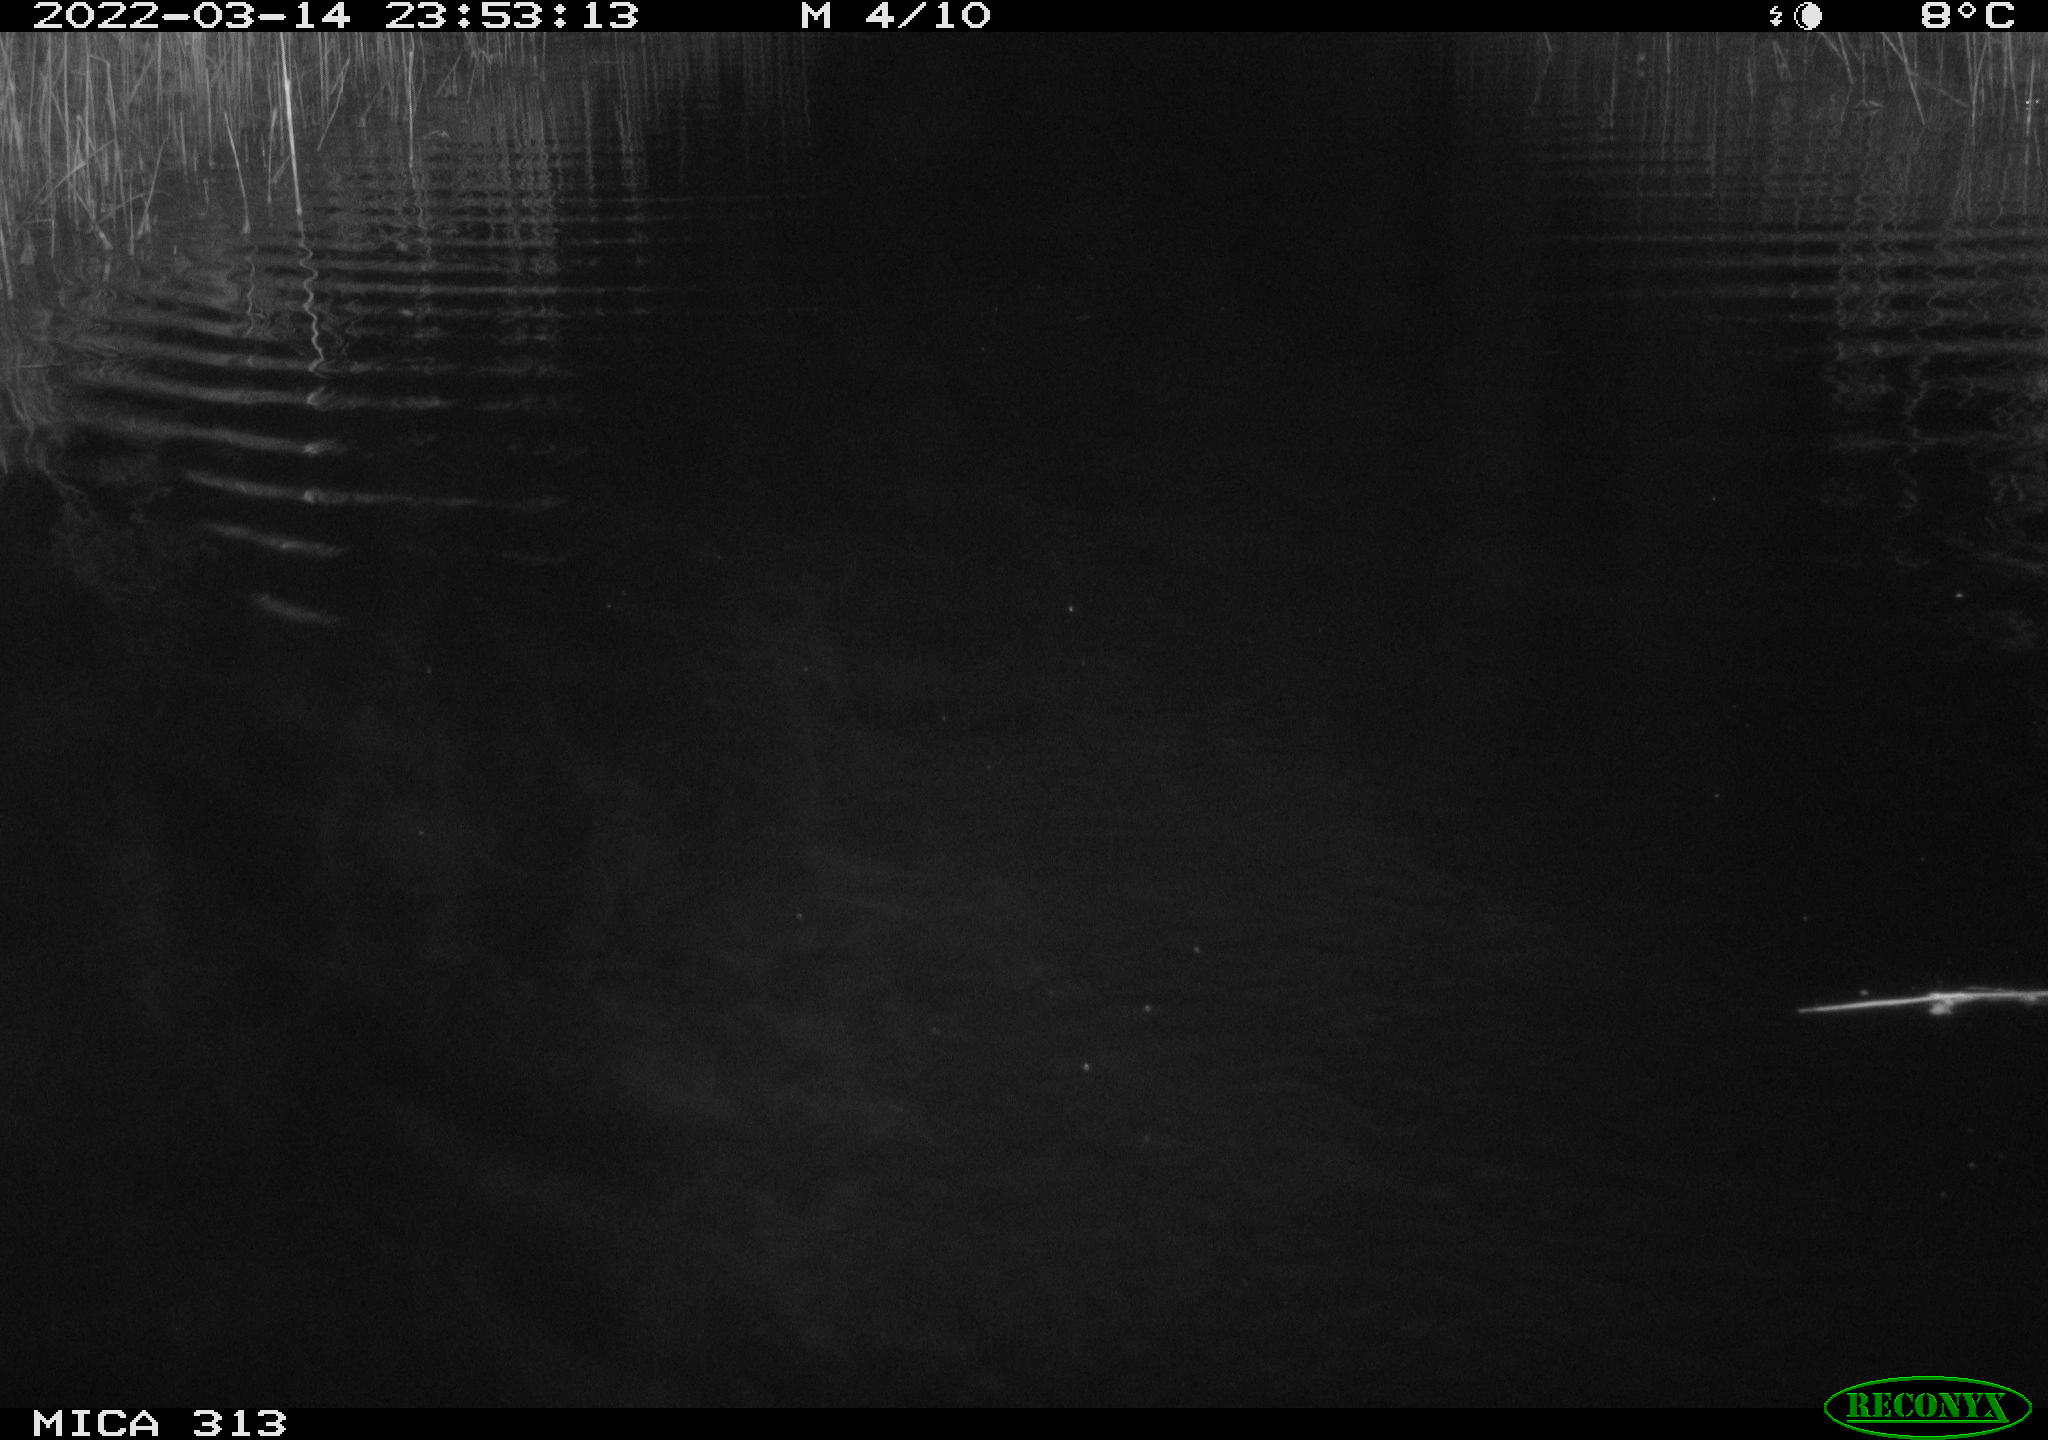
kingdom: Animalia
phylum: Chordata
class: Aves
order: Gruiformes
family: Rallidae
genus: Fulica
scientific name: Fulica atra
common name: Eurasian coot
